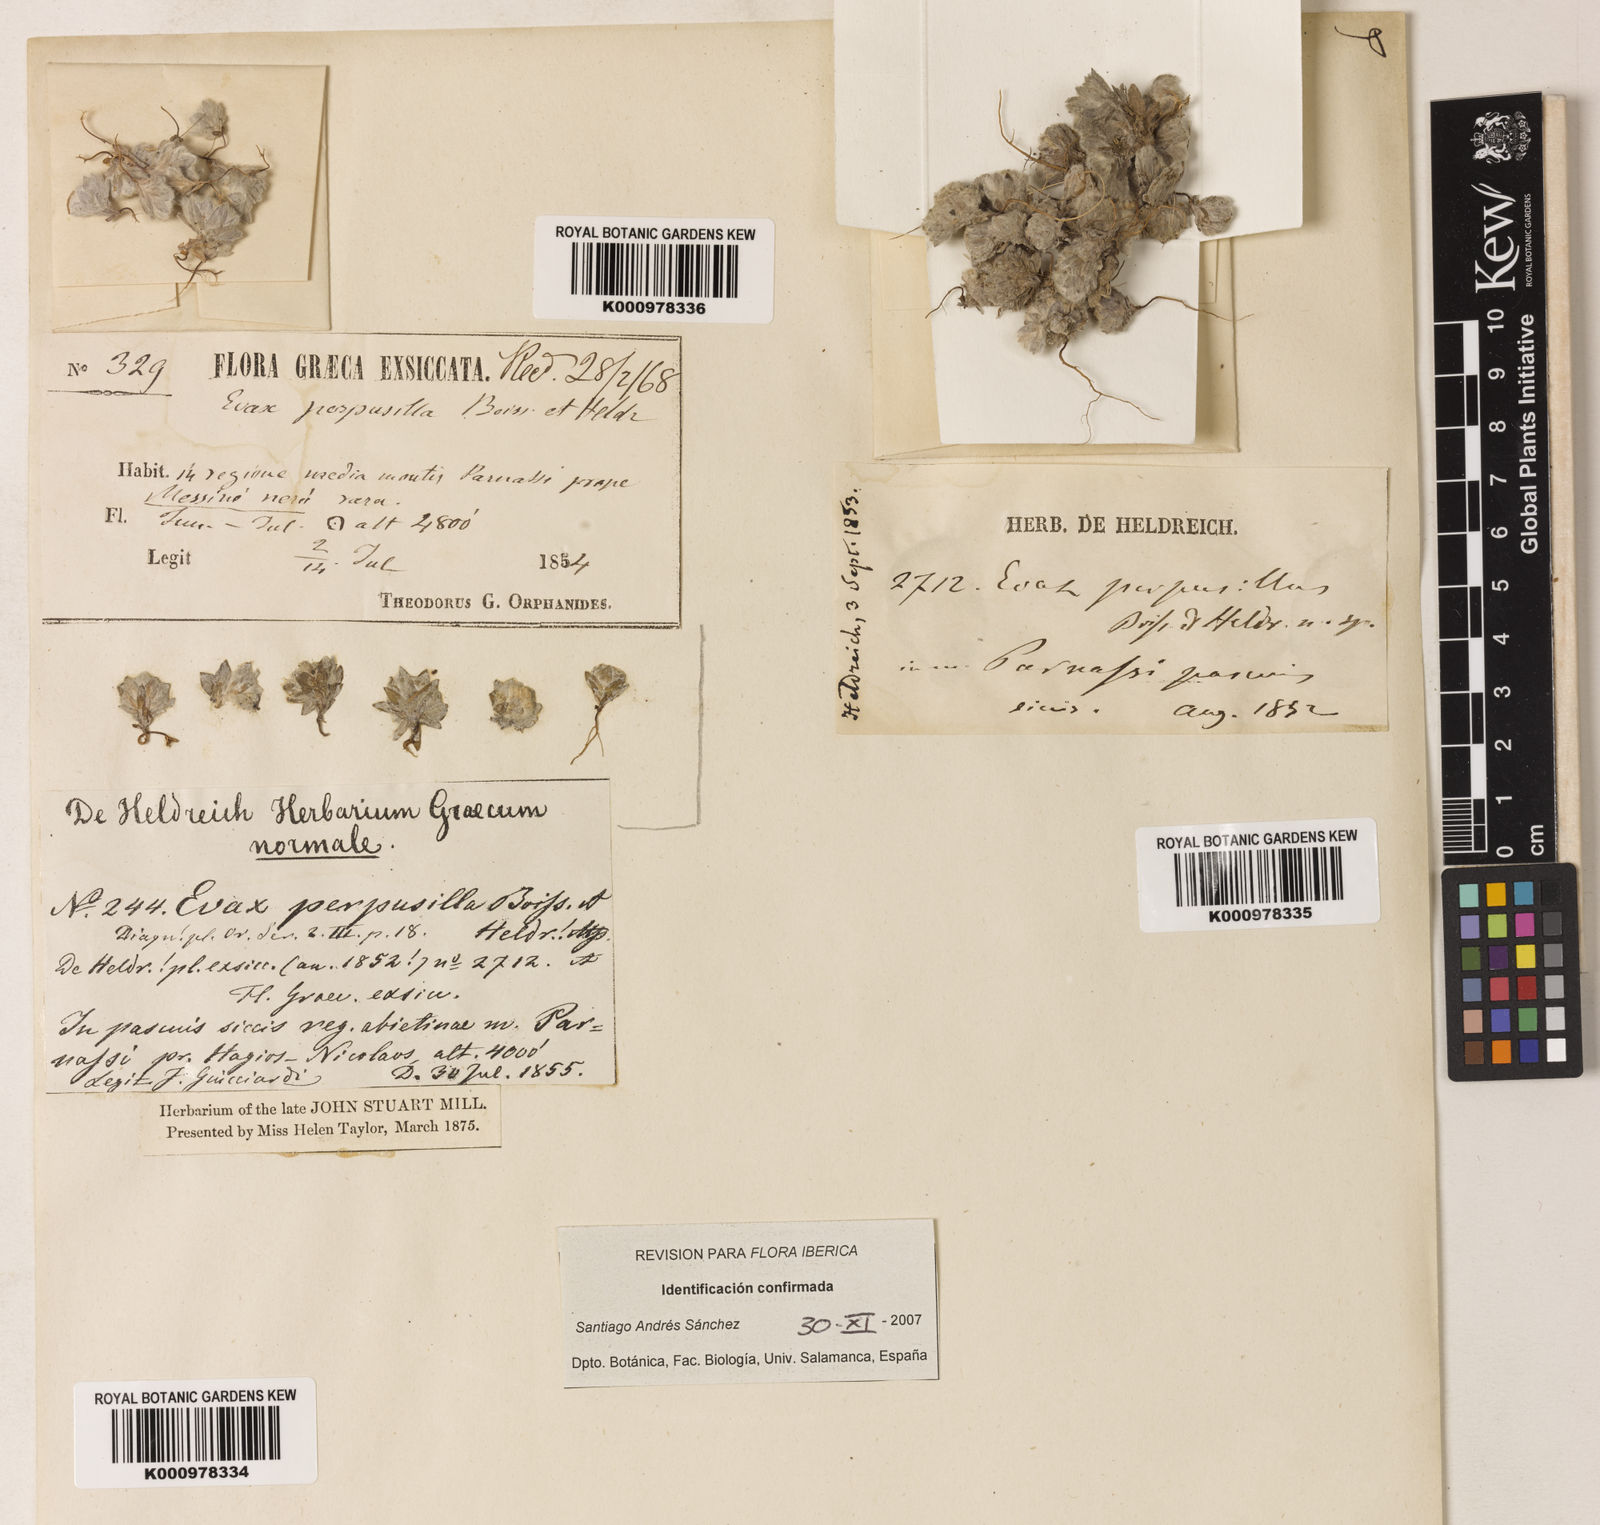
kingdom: Plantae
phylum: Tracheophyta
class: Magnoliopsida
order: Asterales
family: Asteraceae
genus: Filago
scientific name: Filago perpusilla
